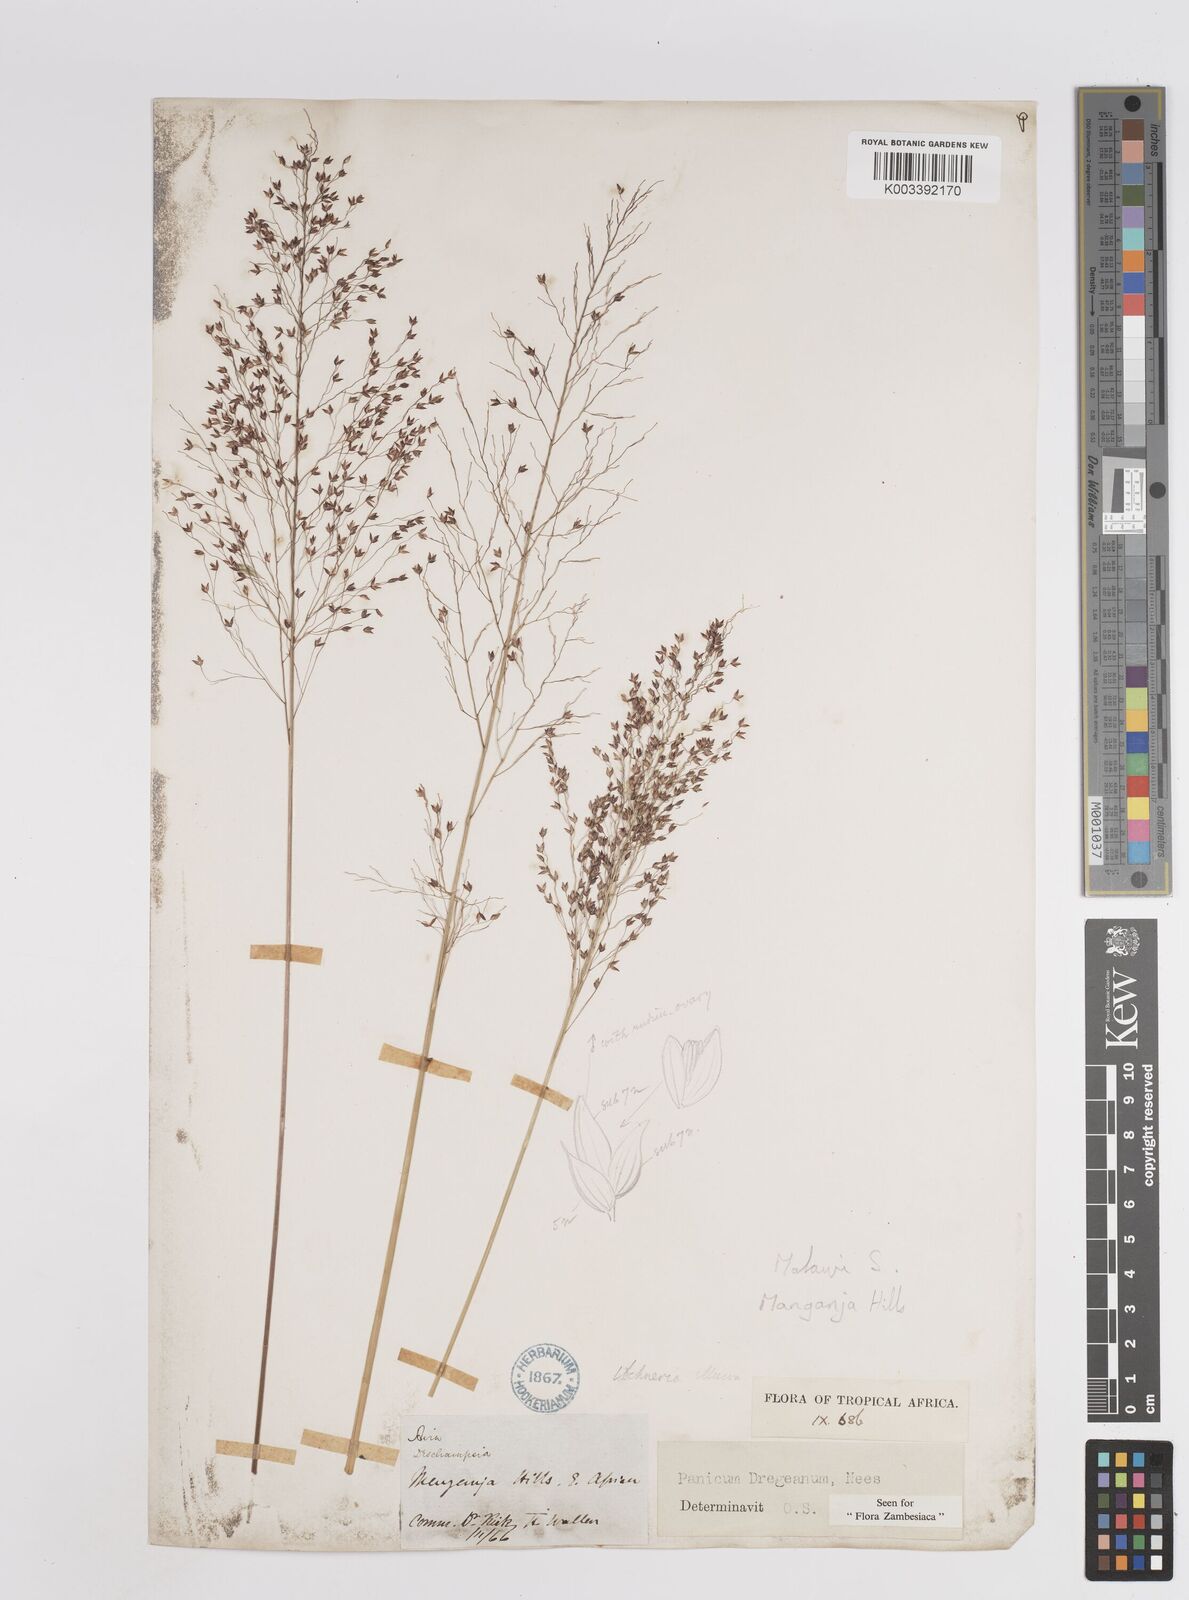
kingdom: Plantae
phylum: Tracheophyta
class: Liliopsida
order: Poales
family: Poaceae
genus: Panicum
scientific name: Panicum dregeanum
